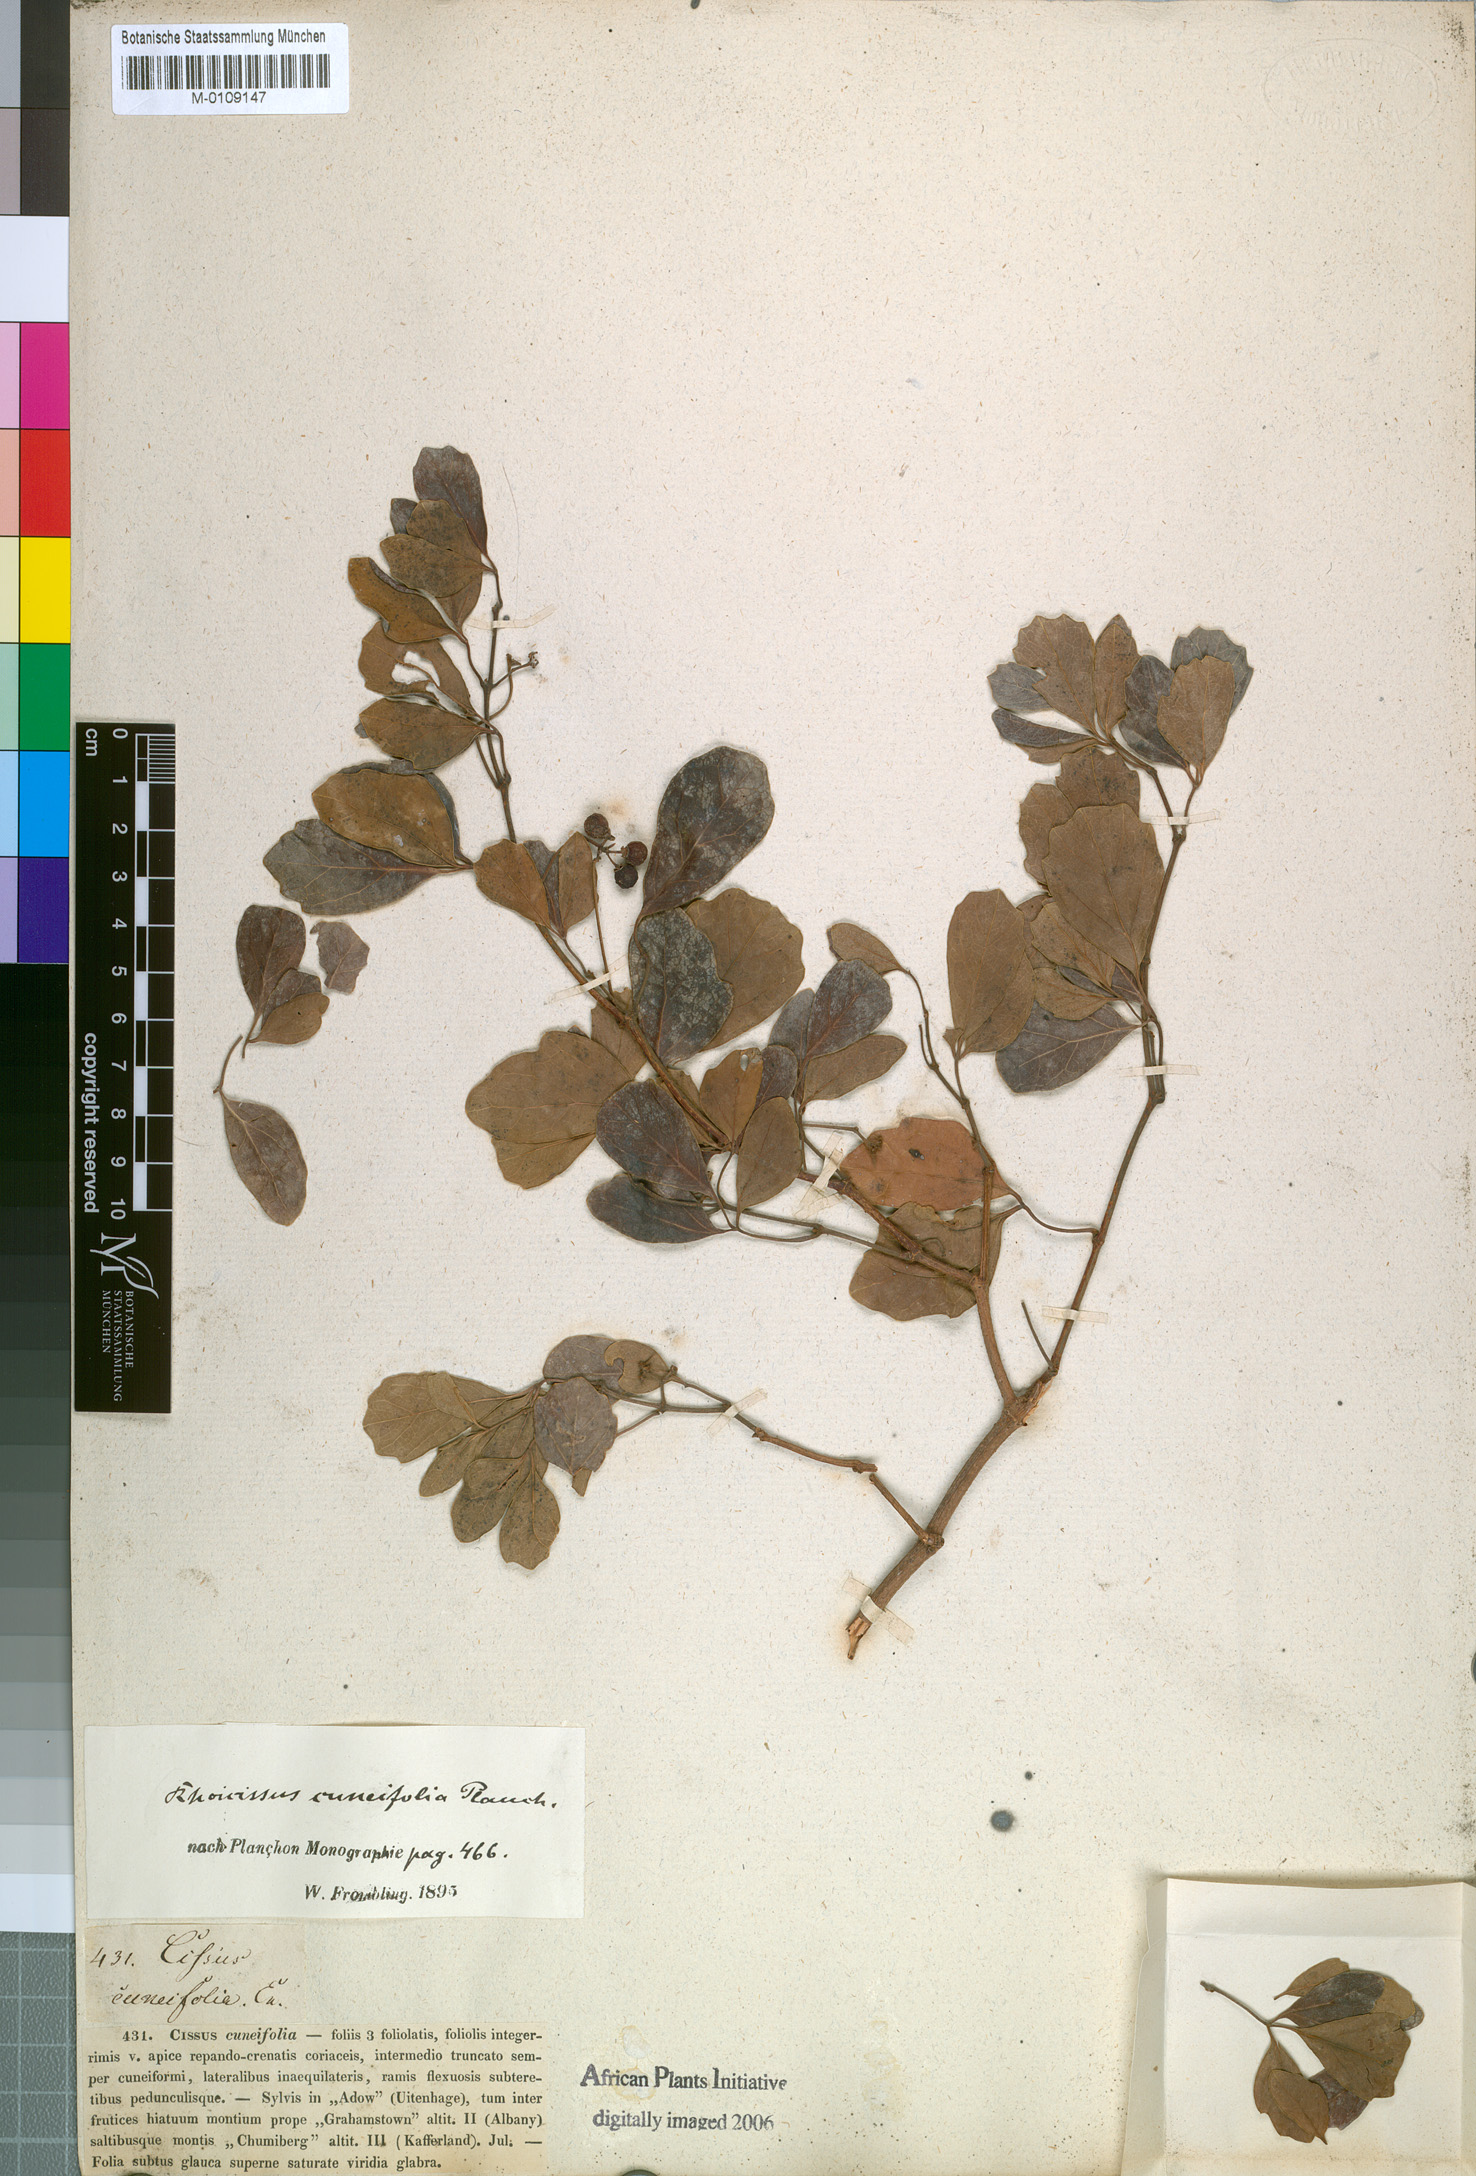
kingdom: Plantae
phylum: Tracheophyta
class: Magnoliopsida
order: Vitales
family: Vitaceae
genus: Rhoicissus
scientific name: Rhoicissus tridentata
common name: Common forest grape
